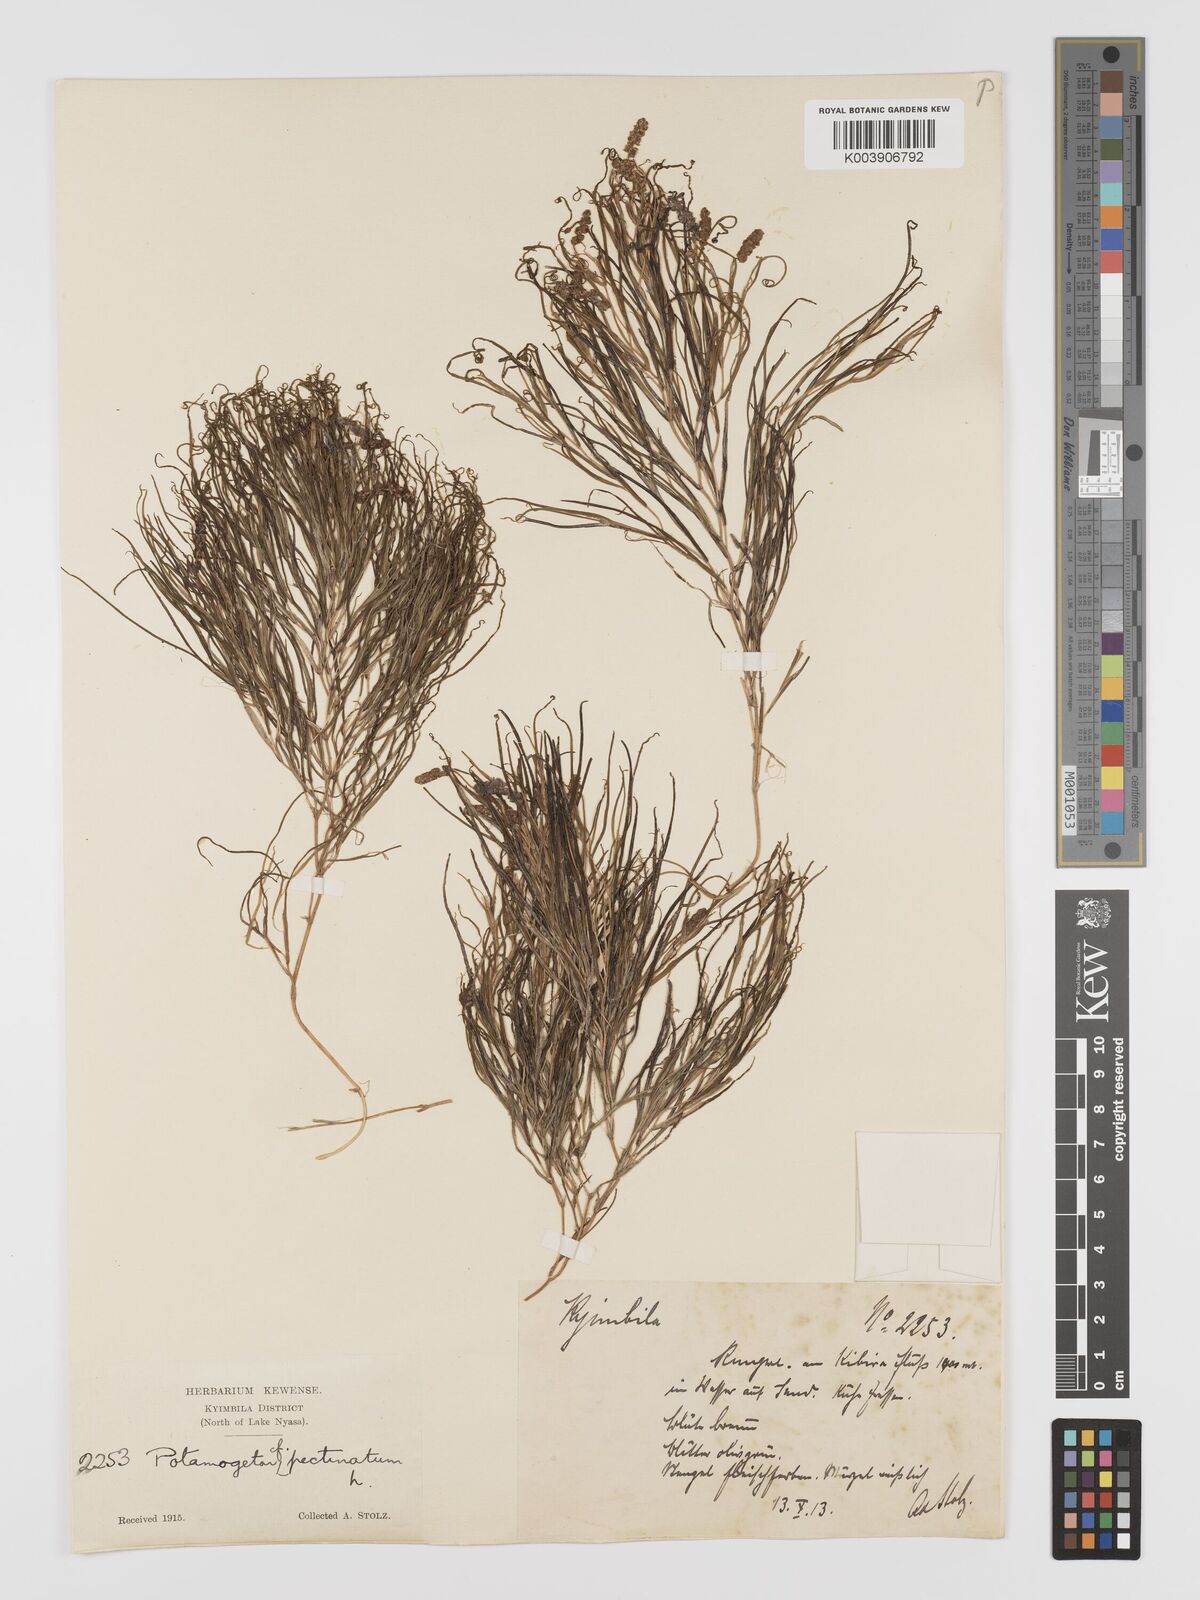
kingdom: Plantae
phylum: Tracheophyta
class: Liliopsida
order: Alismatales
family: Potamogetonaceae
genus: Stuckenia
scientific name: Stuckenia pectinata
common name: Sago pondweed
